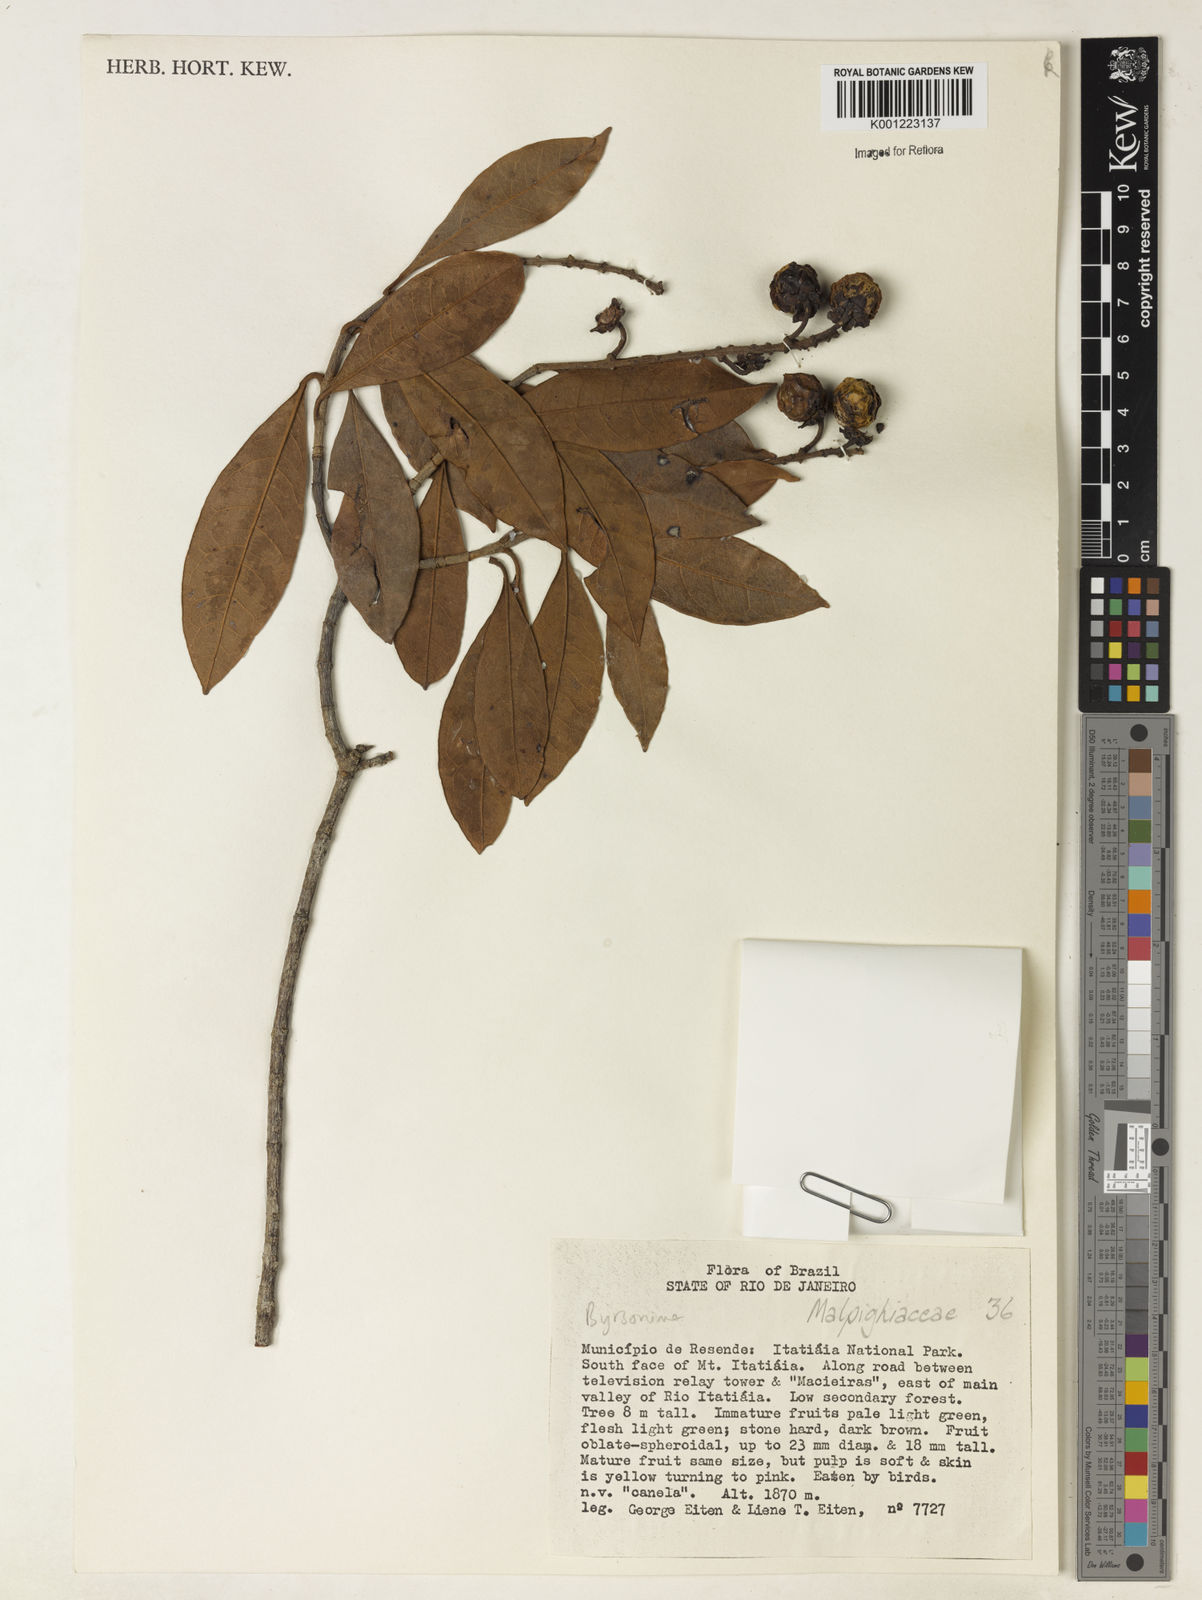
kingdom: Plantae
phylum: Tracheophyta
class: Magnoliopsida
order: Malpighiales
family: Malpighiaceae
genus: Byrsonima
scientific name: Byrsonima
